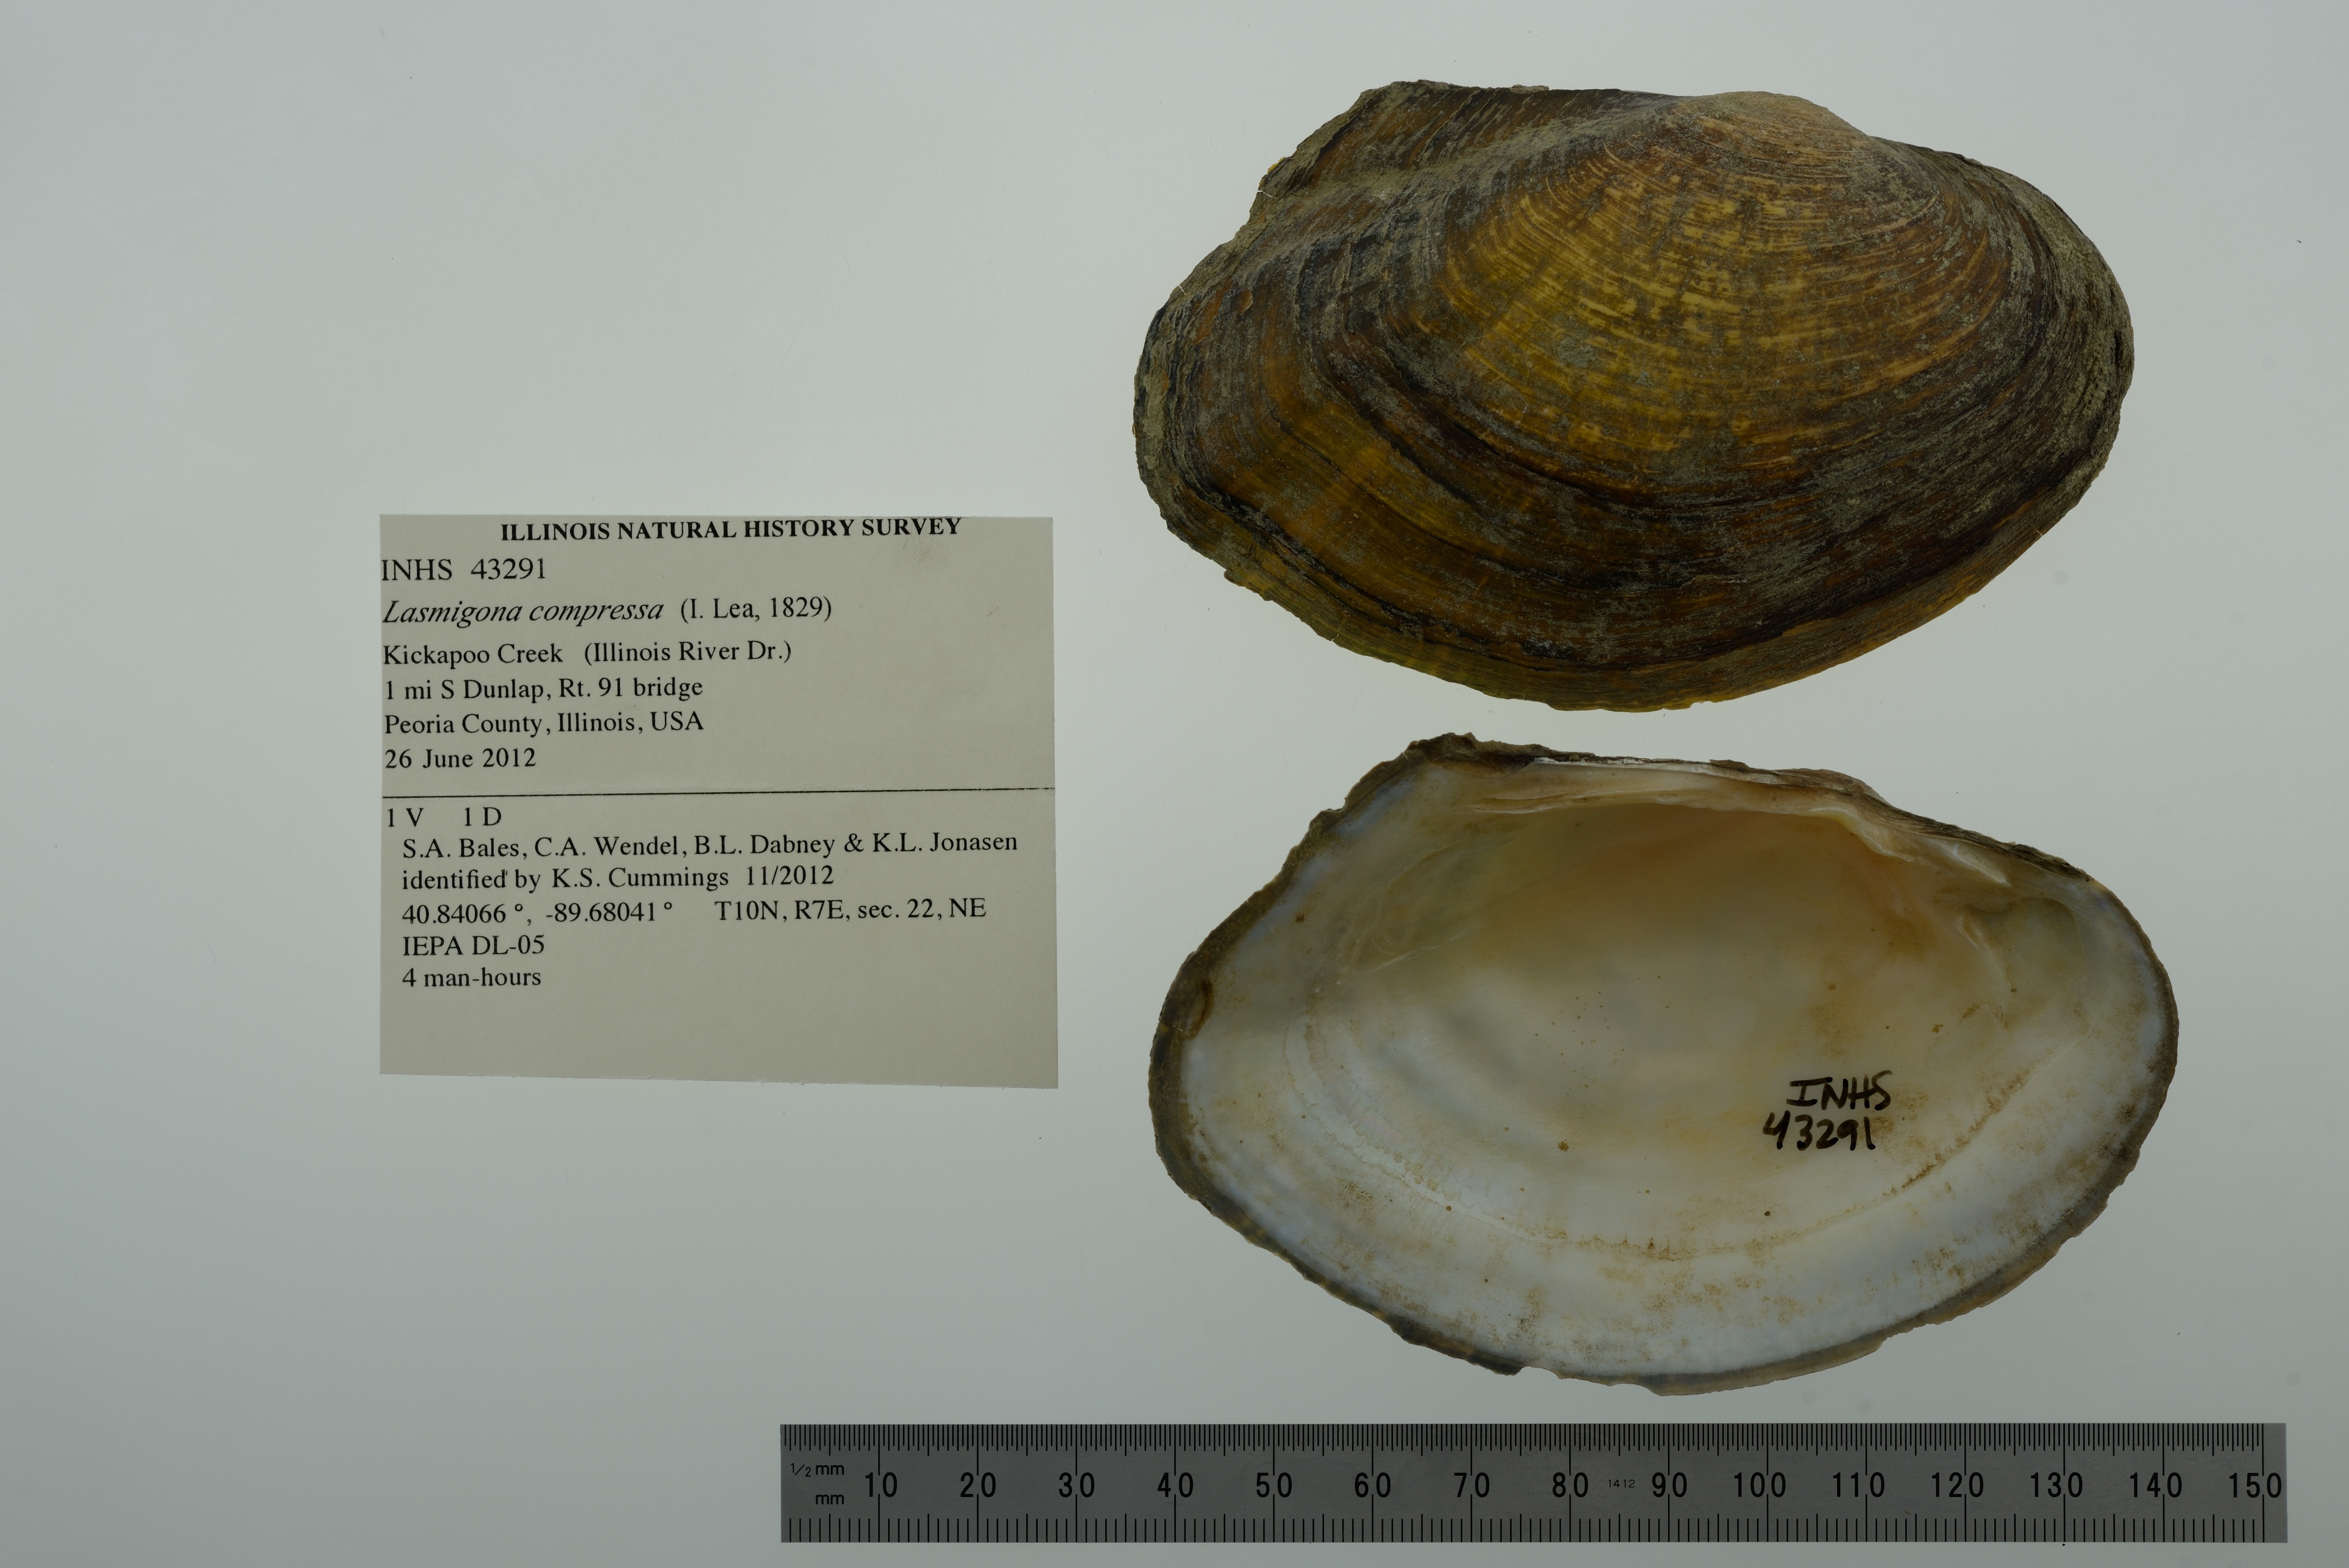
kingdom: Animalia
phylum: Mollusca
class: Bivalvia
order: Unionida
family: Unionidae
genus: Lasmigona
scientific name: Lasmigona compressa
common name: Creek heelsplitter
